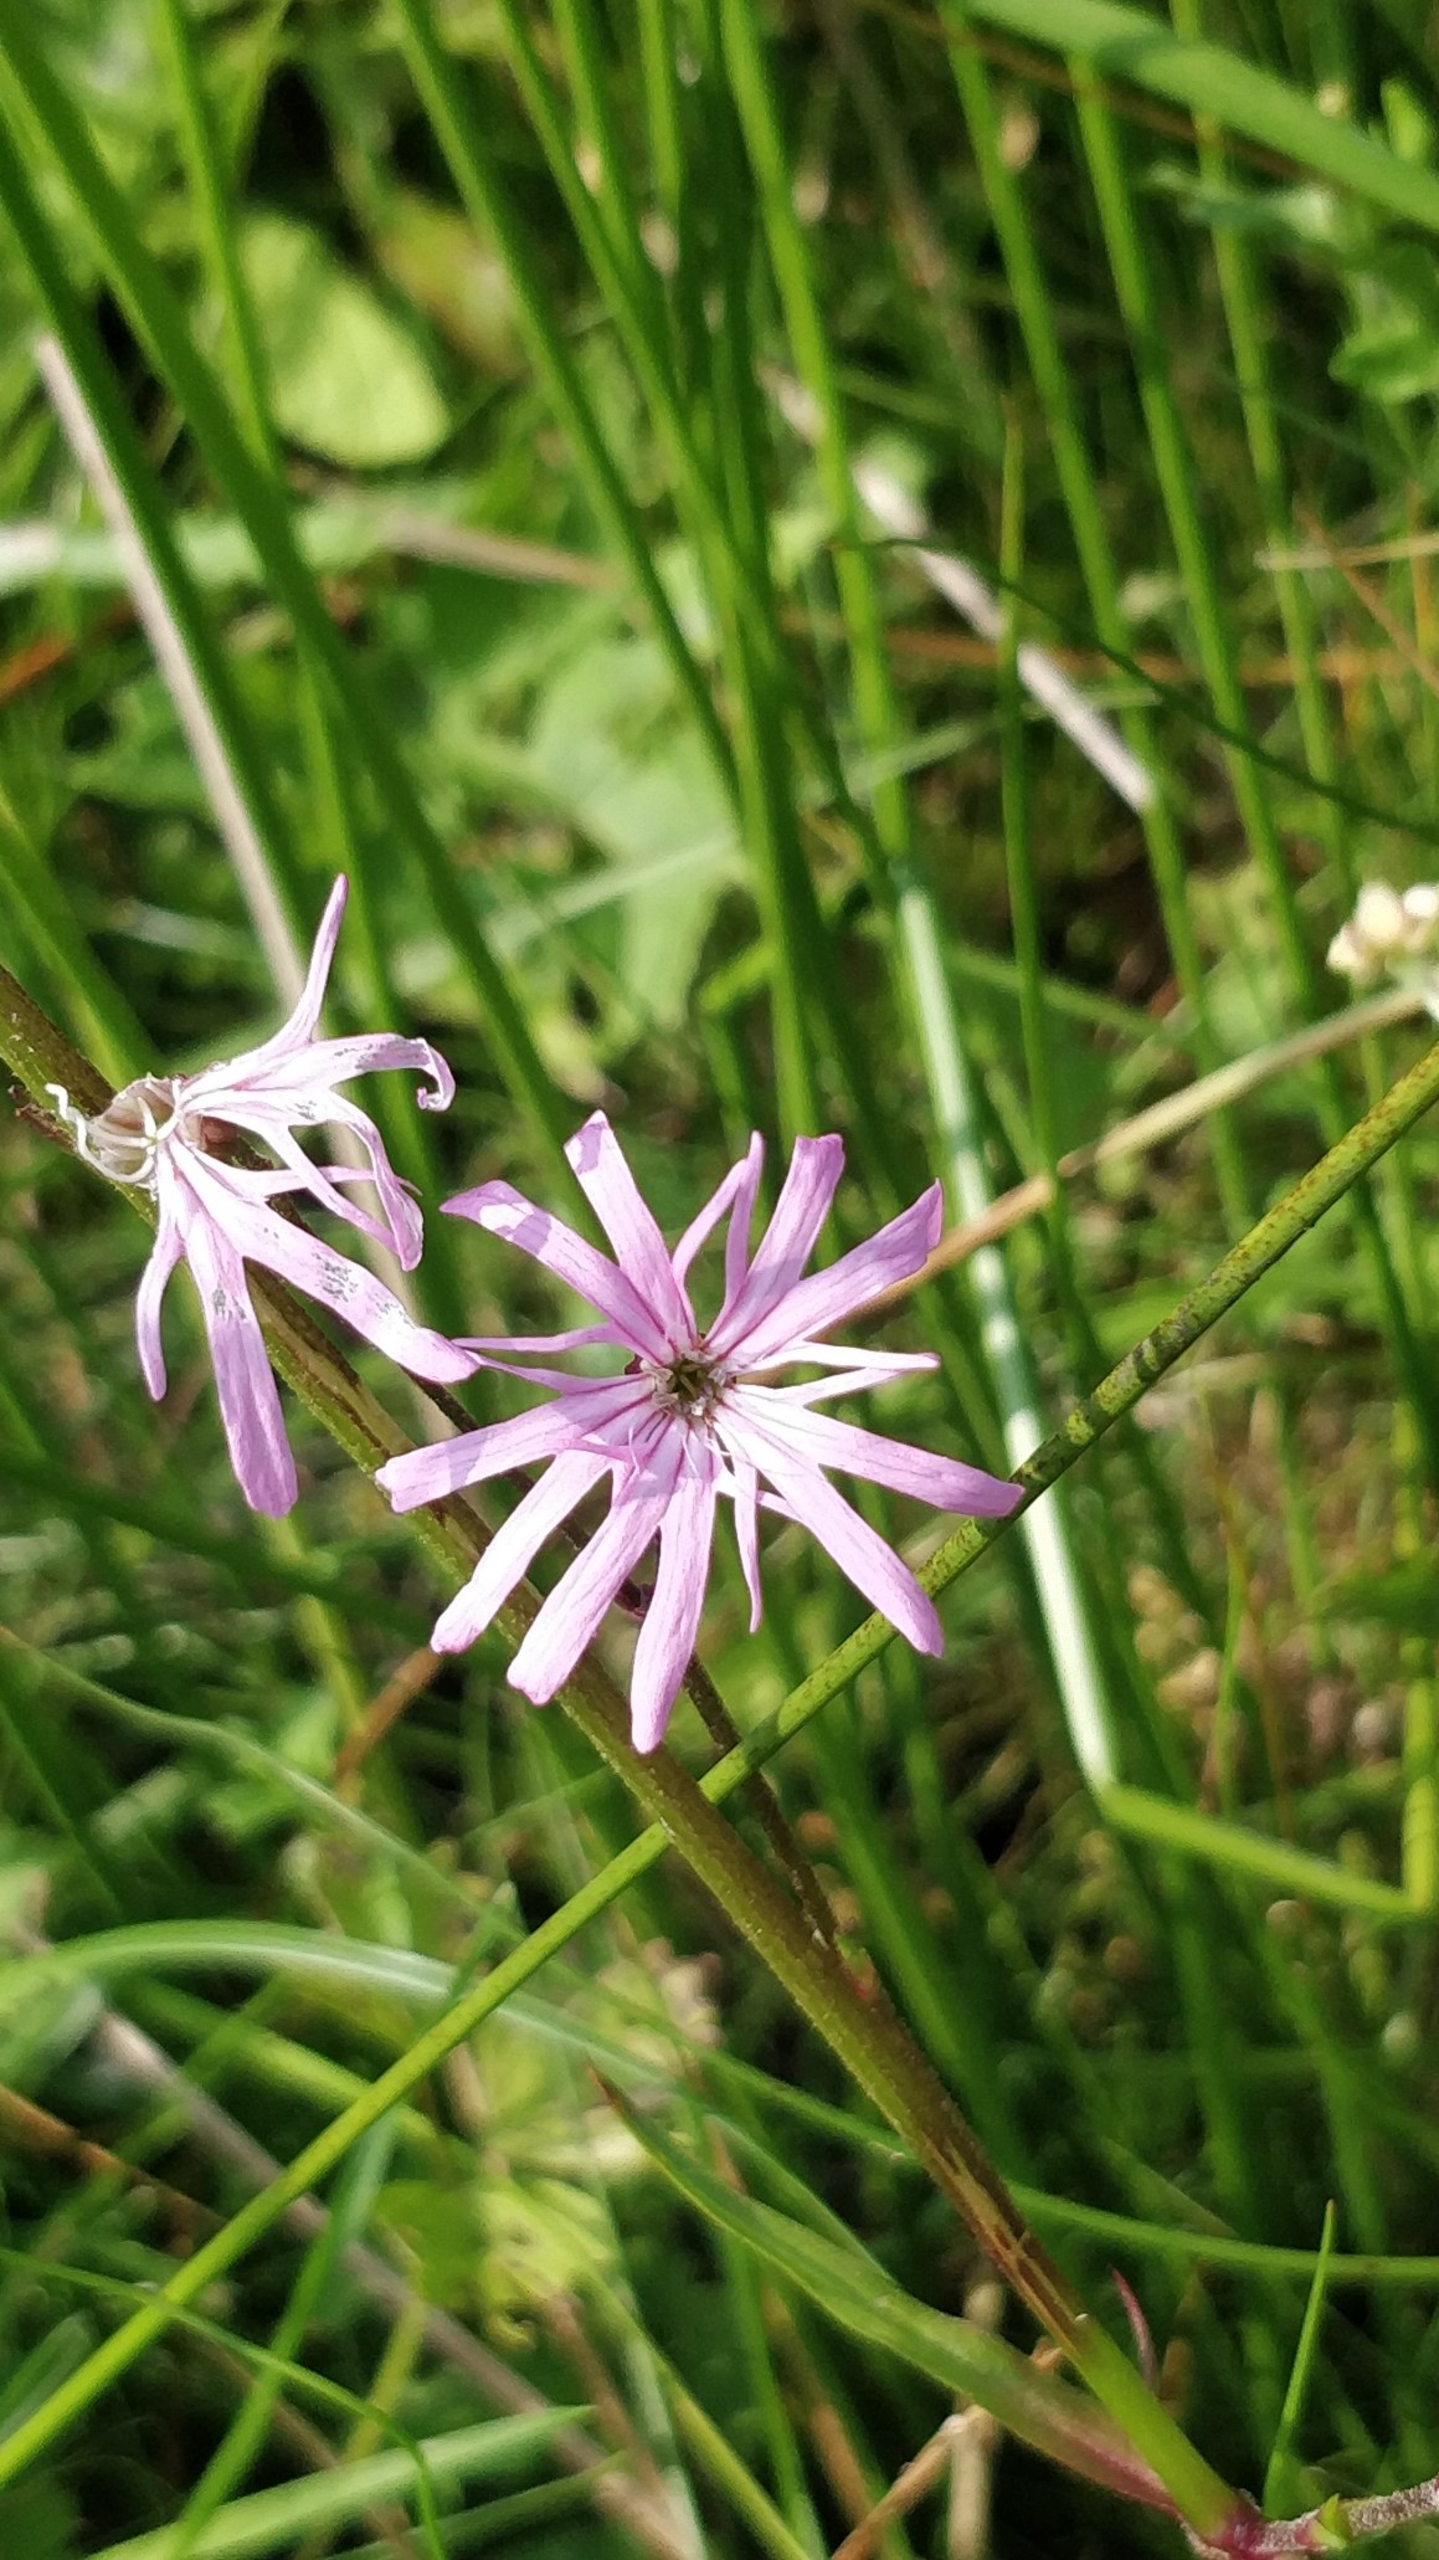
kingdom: Plantae
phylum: Tracheophyta
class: Magnoliopsida
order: Caryophyllales
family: Caryophyllaceae
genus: Silene
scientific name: Silene flos-cuculi
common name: Trævlekrone
